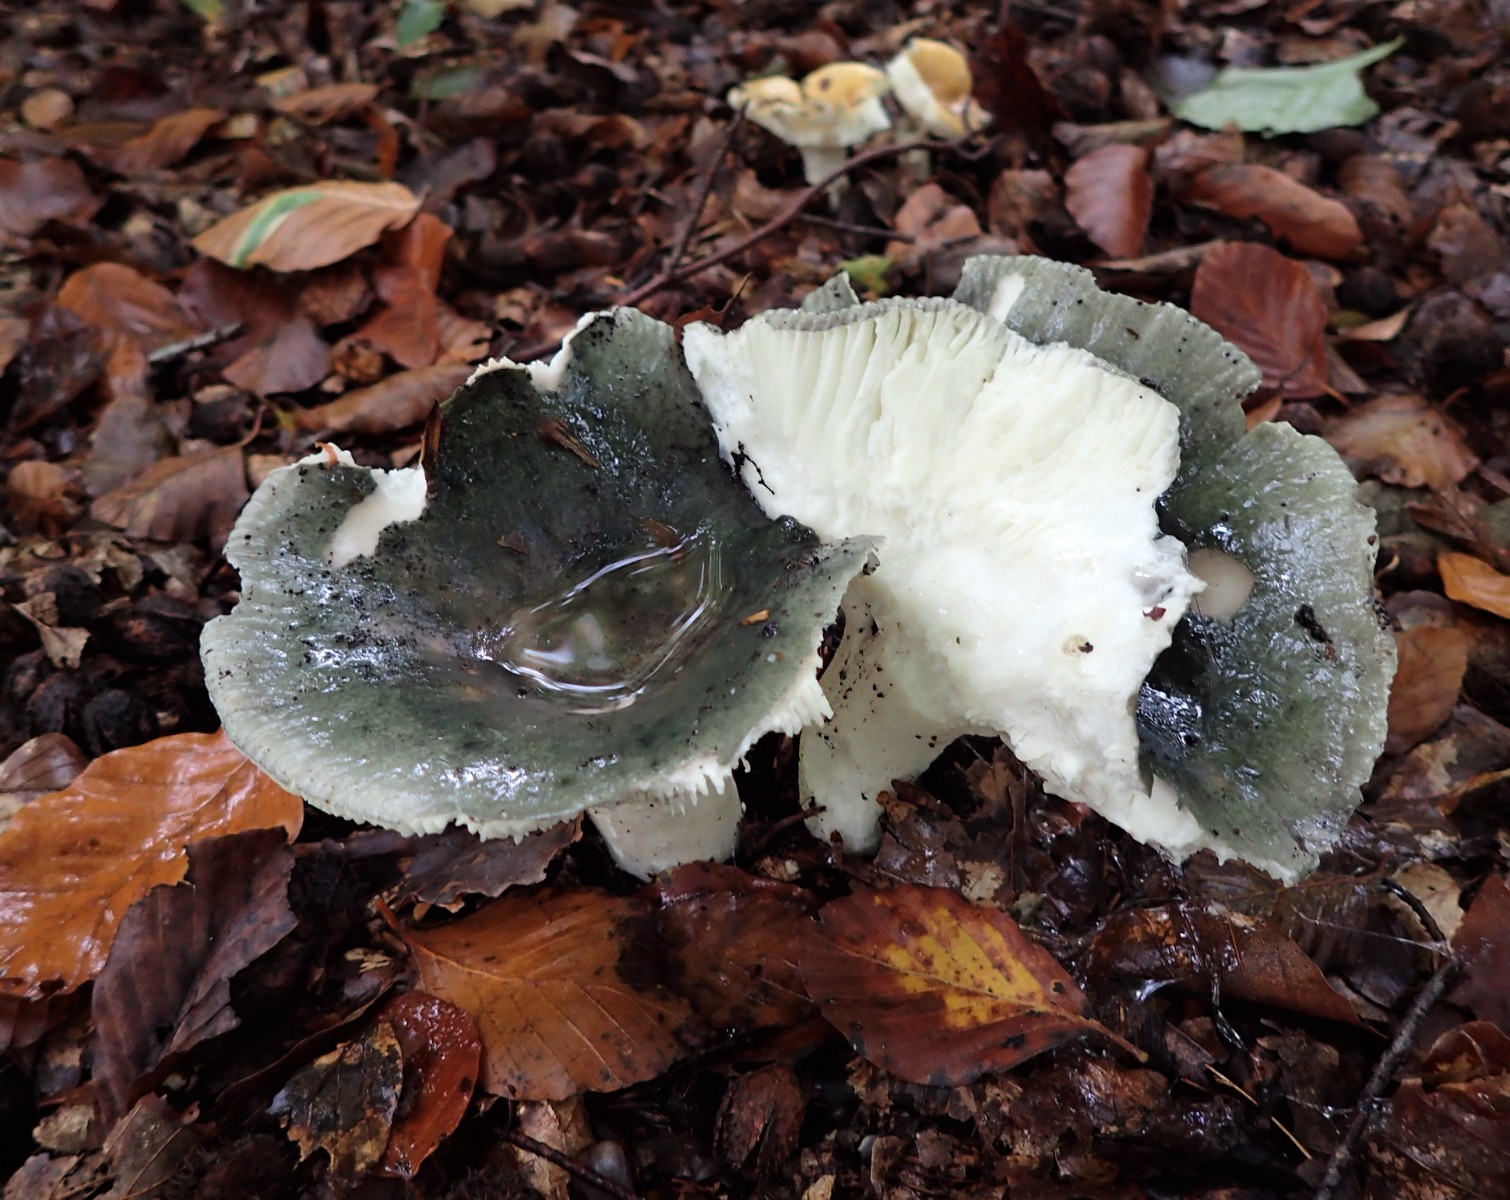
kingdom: Fungi
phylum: Basidiomycota
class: Agaricomycetes
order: Russulales
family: Russulaceae
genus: Russula
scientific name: Russula
